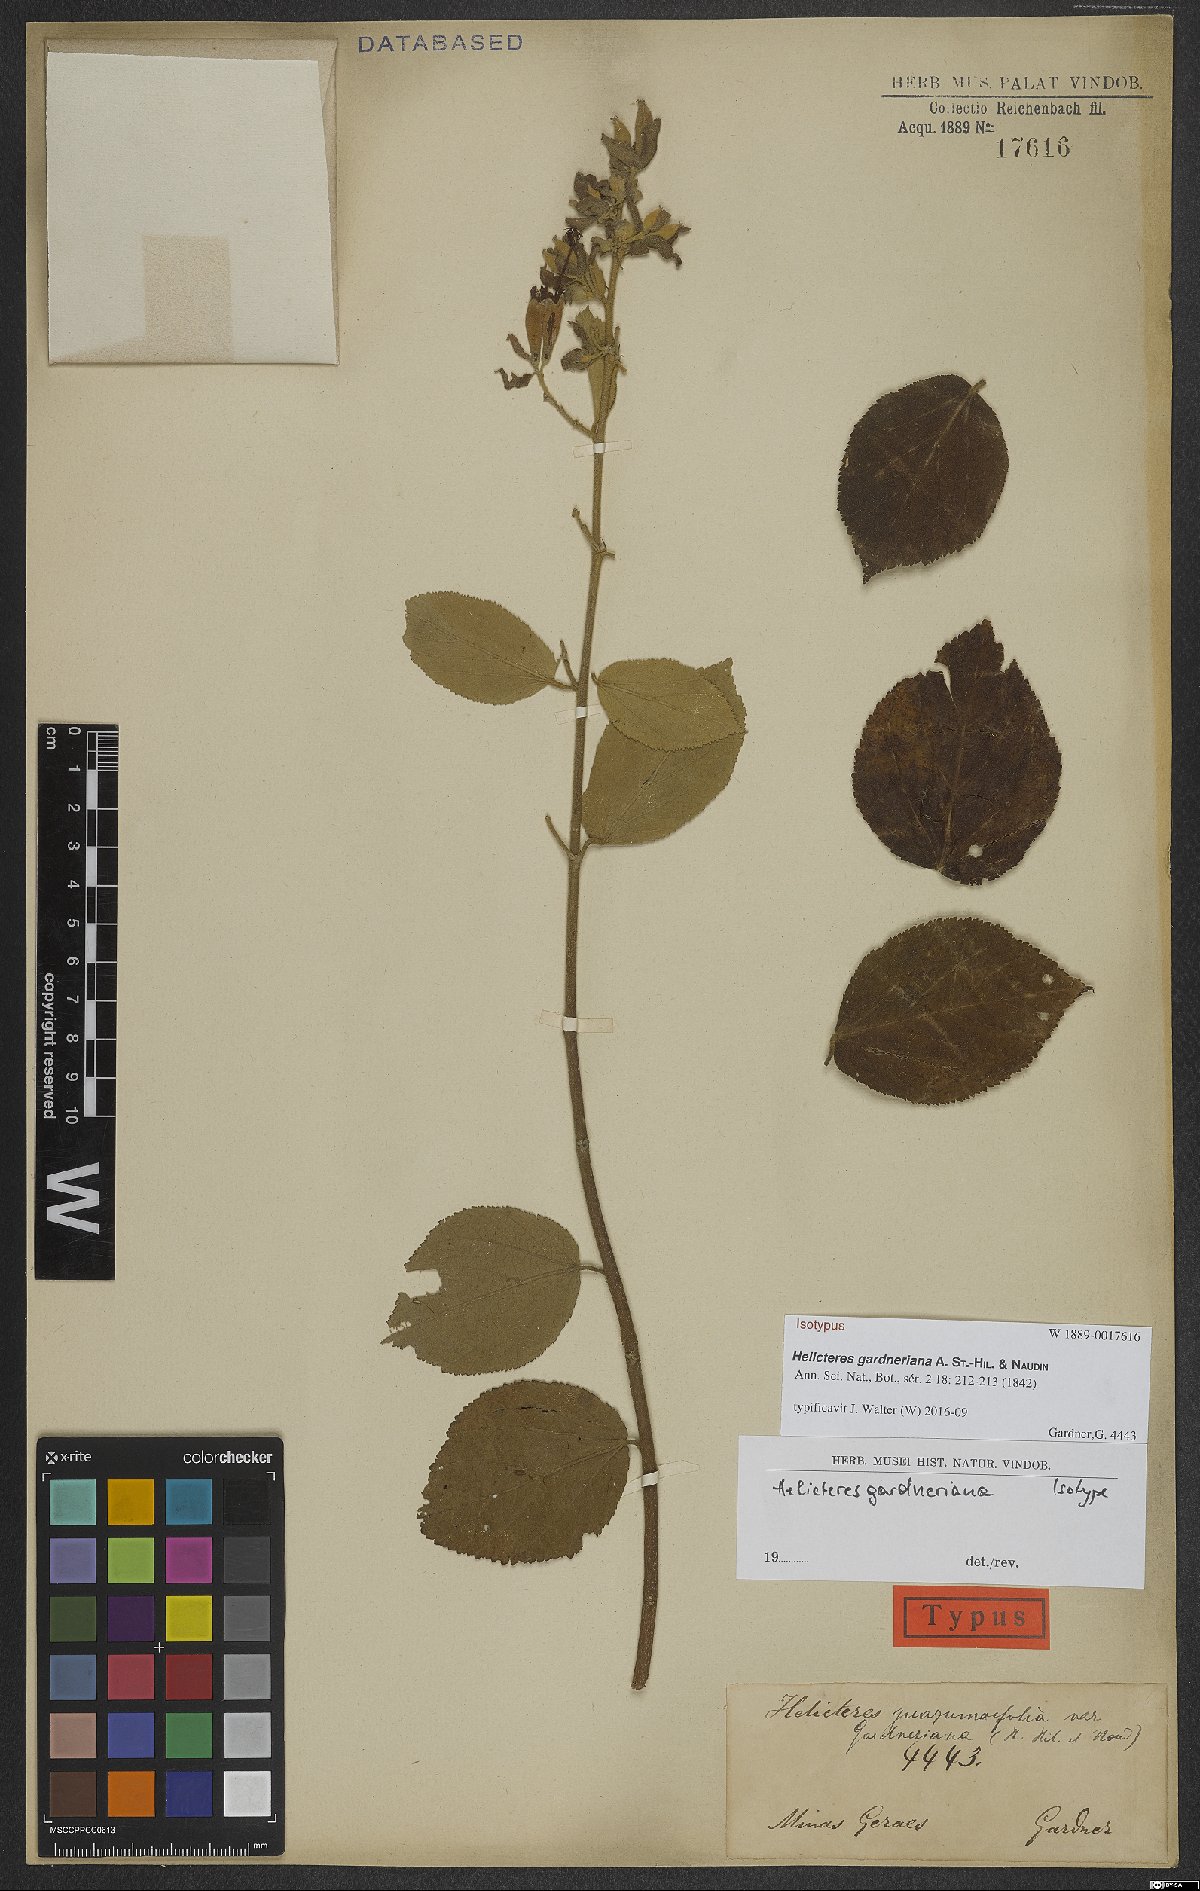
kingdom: Plantae
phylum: Tracheophyta
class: Magnoliopsida
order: Malvales
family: Malvaceae
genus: Helicteres
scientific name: Helicteres gardneriana
